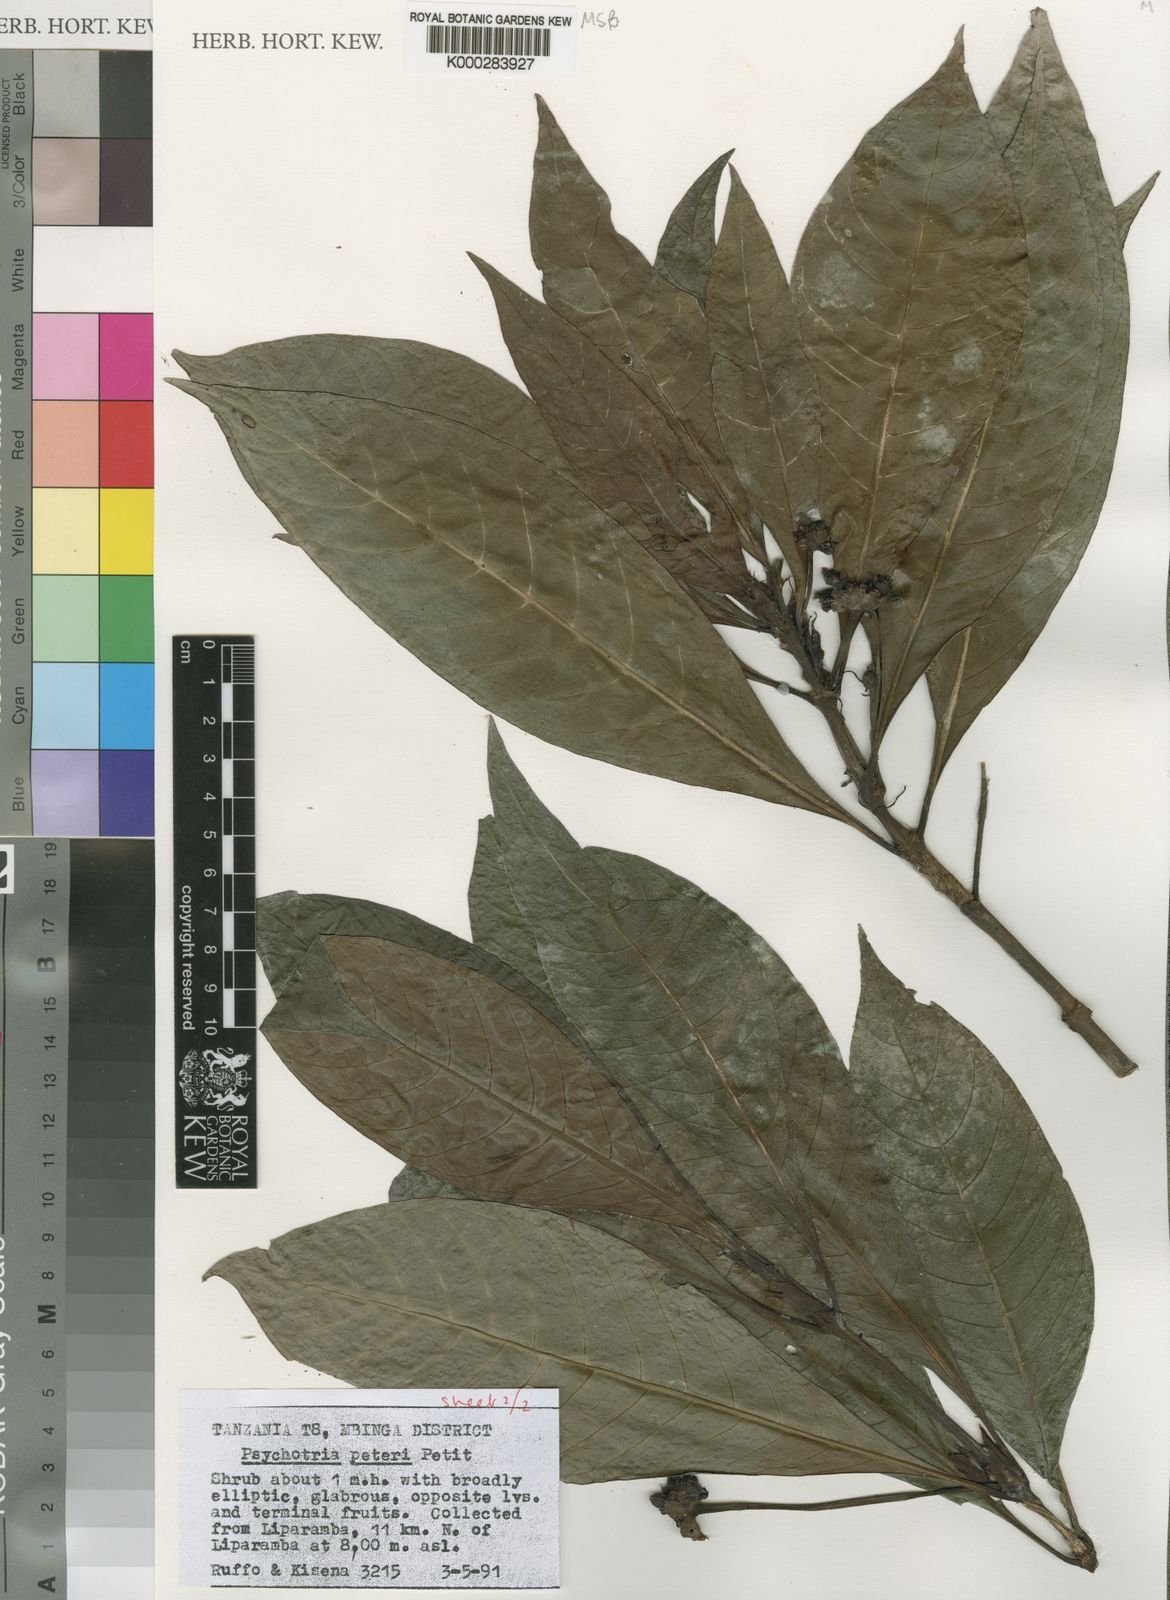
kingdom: Plantae
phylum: Tracheophyta
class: Magnoliopsida
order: Gentianales
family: Rubiaceae
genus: Psychotria
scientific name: Psychotria peteri
